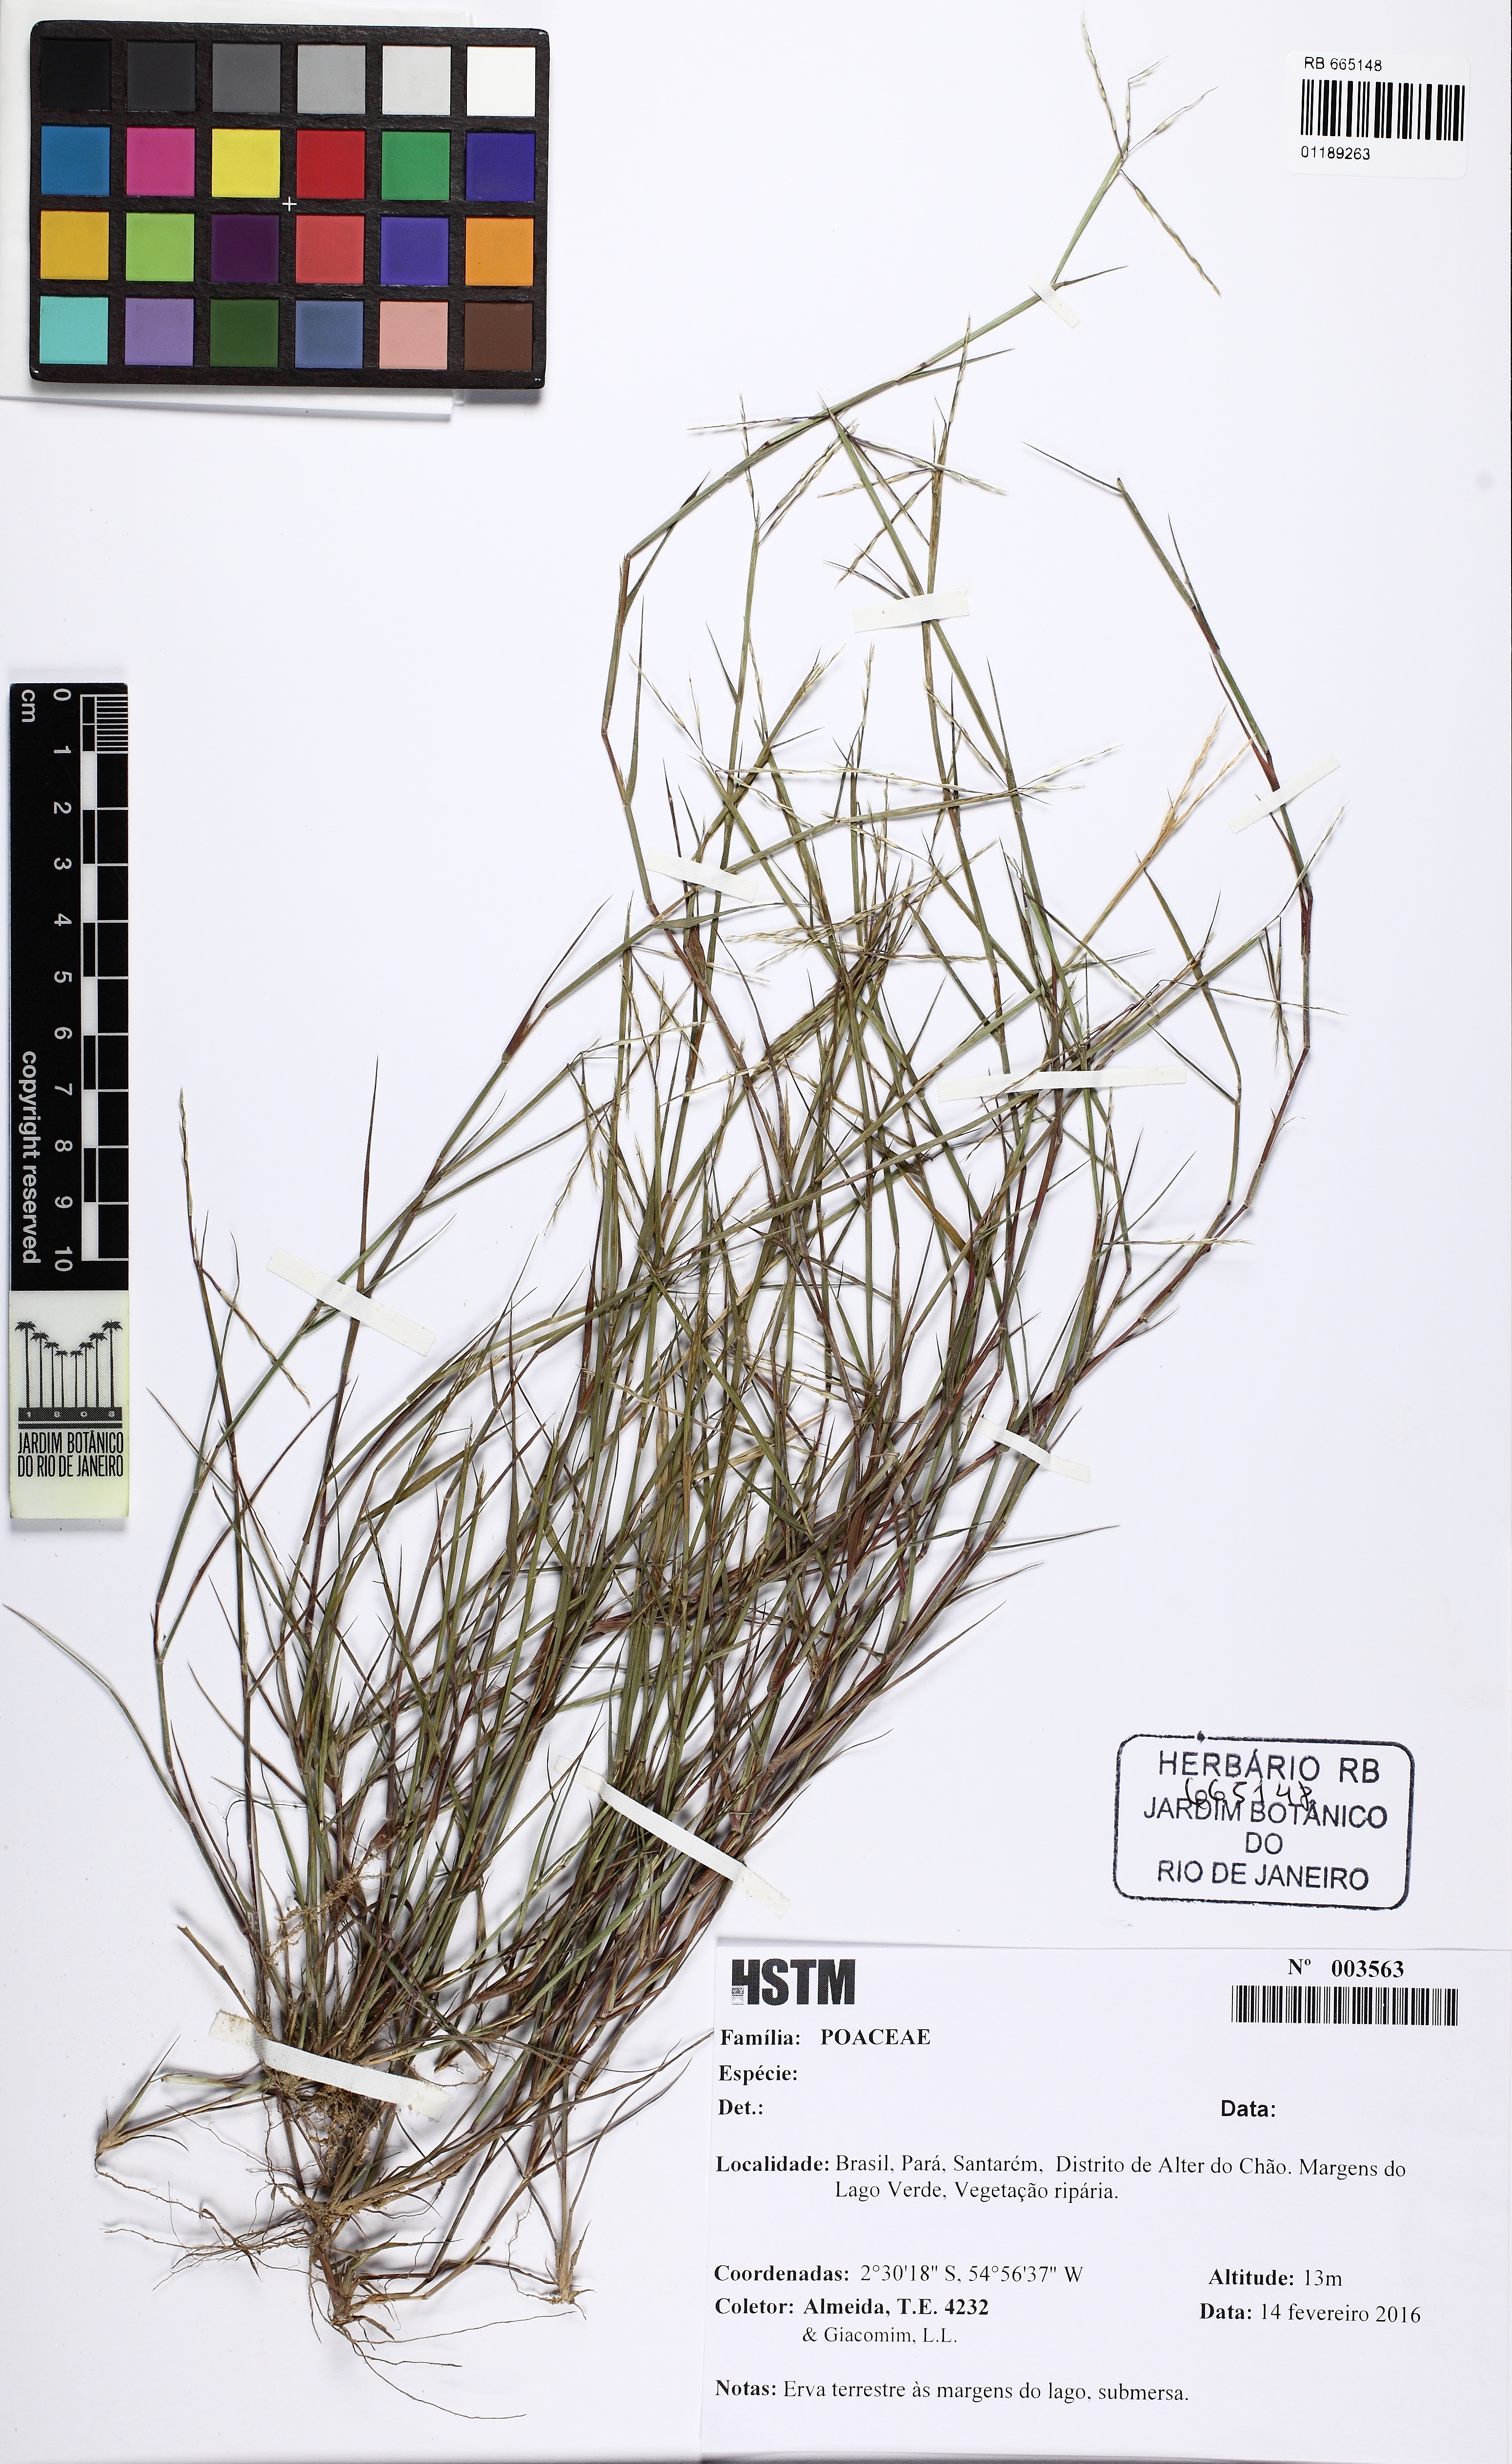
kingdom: Plantae
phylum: Tracheophyta
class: Liliopsida
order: Poales
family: Poaceae
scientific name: Poaceae
